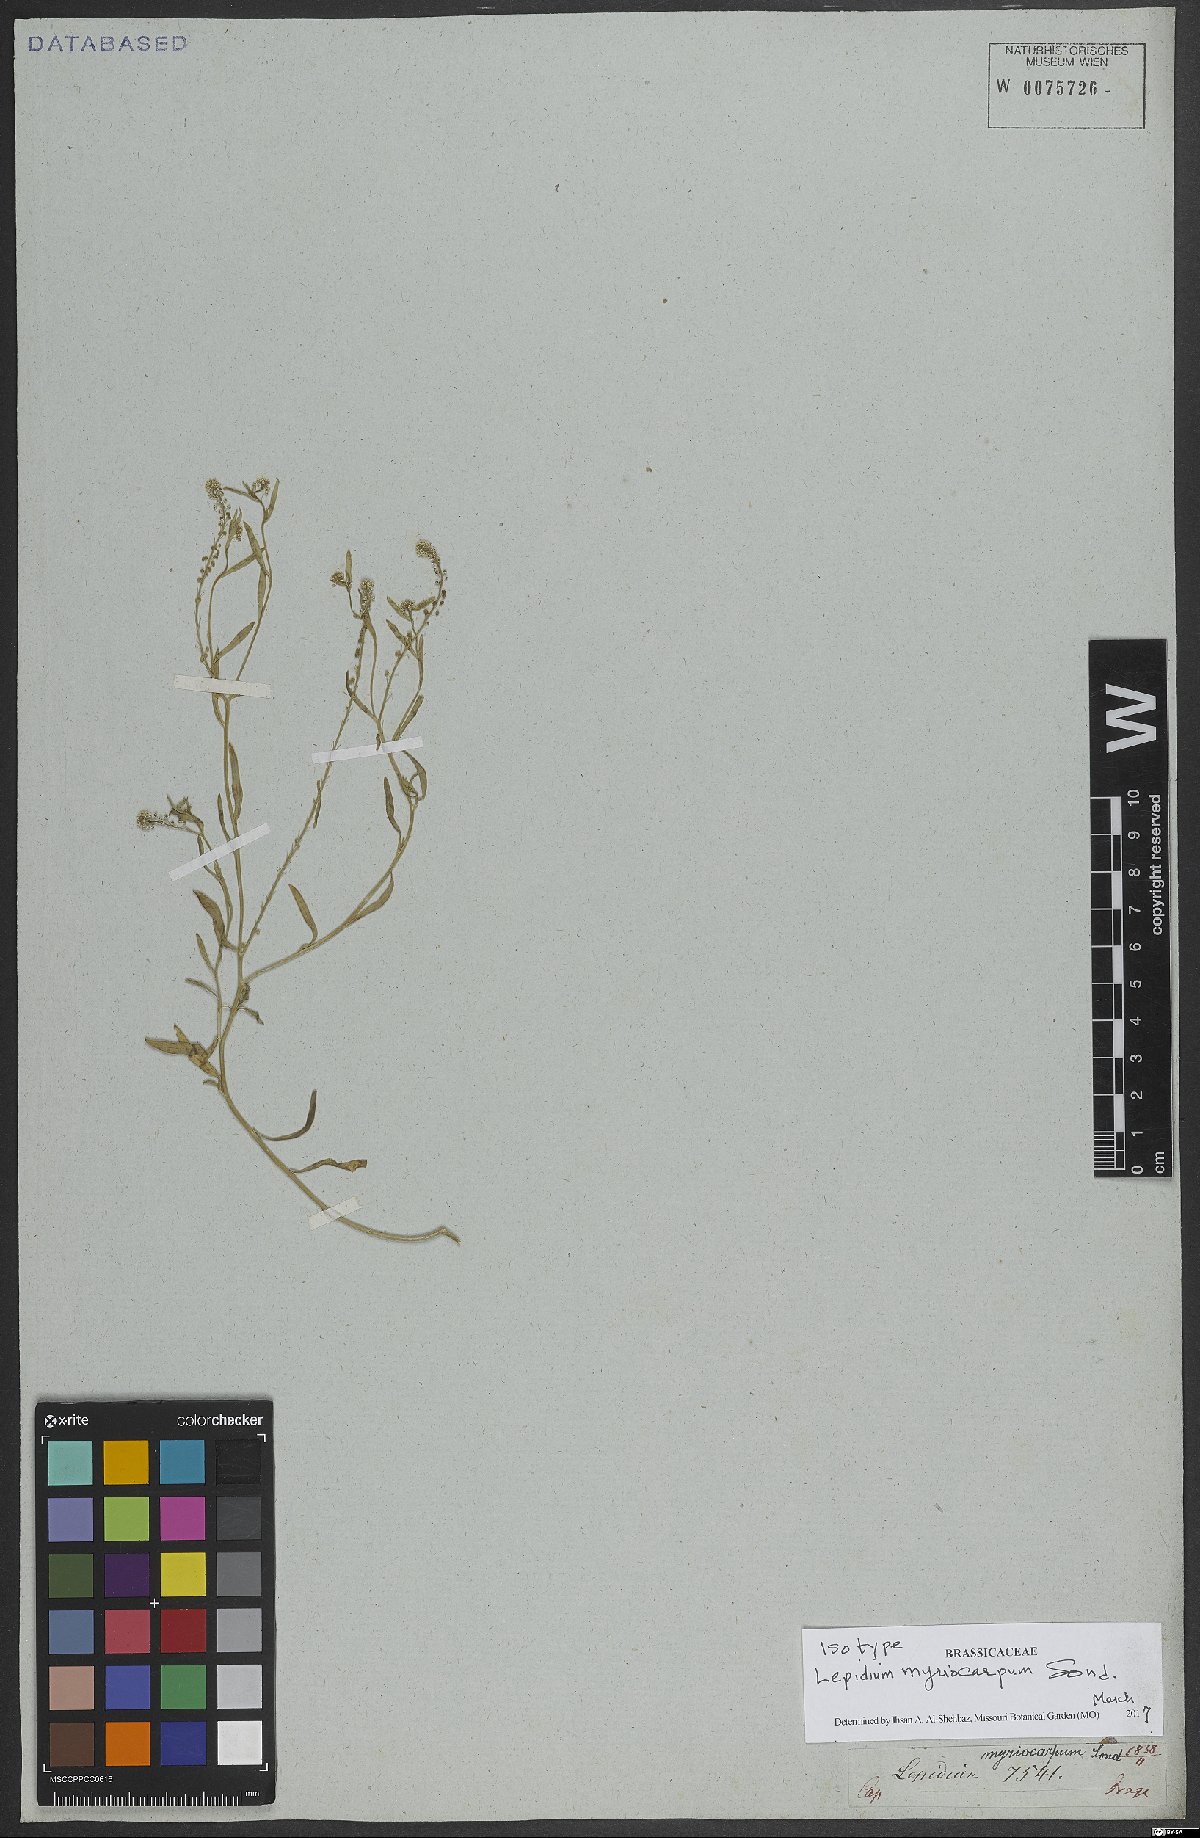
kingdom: Plantae
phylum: Tracheophyta
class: Magnoliopsida
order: Brassicales
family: Brassicaceae
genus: Lepidium
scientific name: Lepidium myriocarpum
